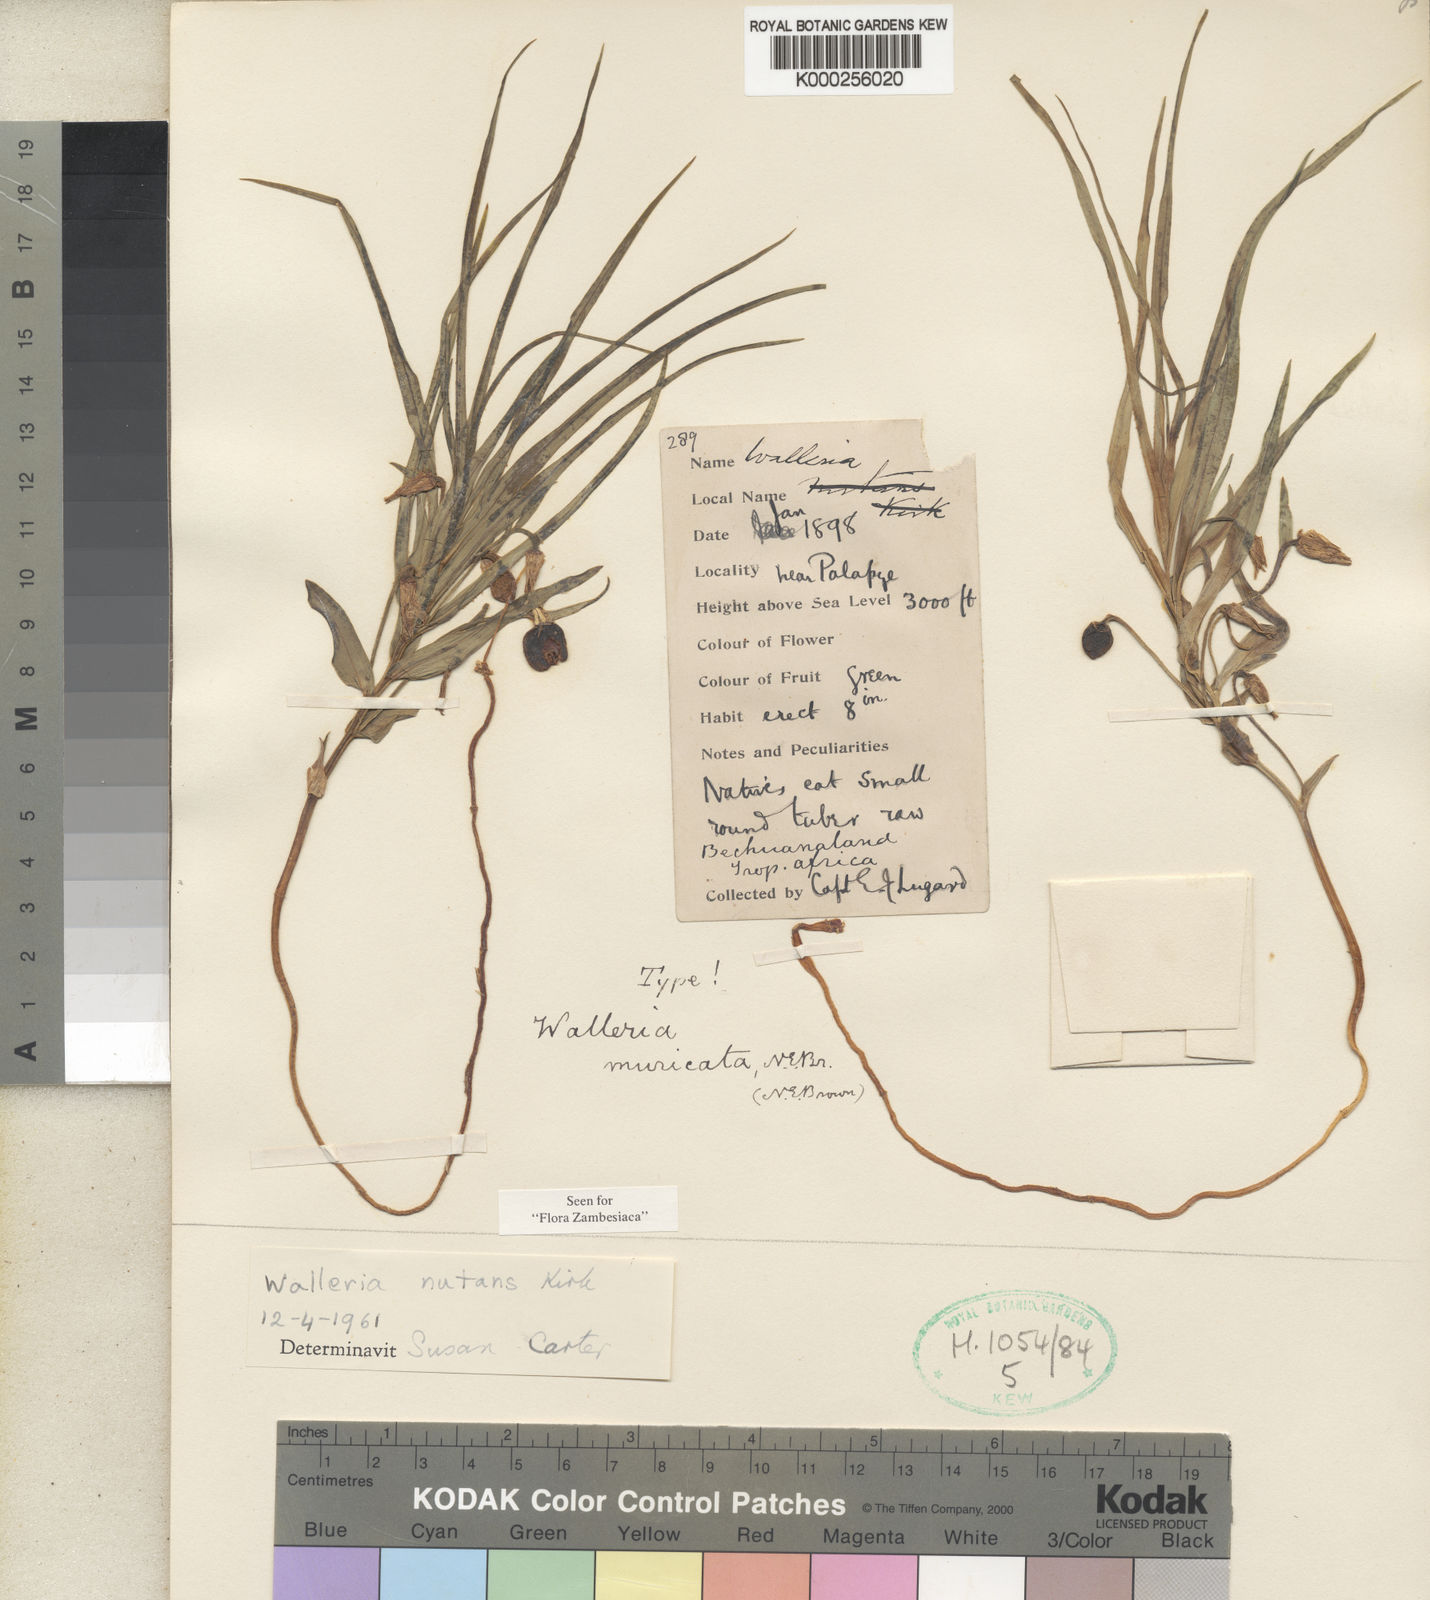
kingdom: Plantae
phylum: Tracheophyta
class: Liliopsida
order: Asparagales
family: Tecophilaeaceae
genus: Walleria
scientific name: Walleria nutans
